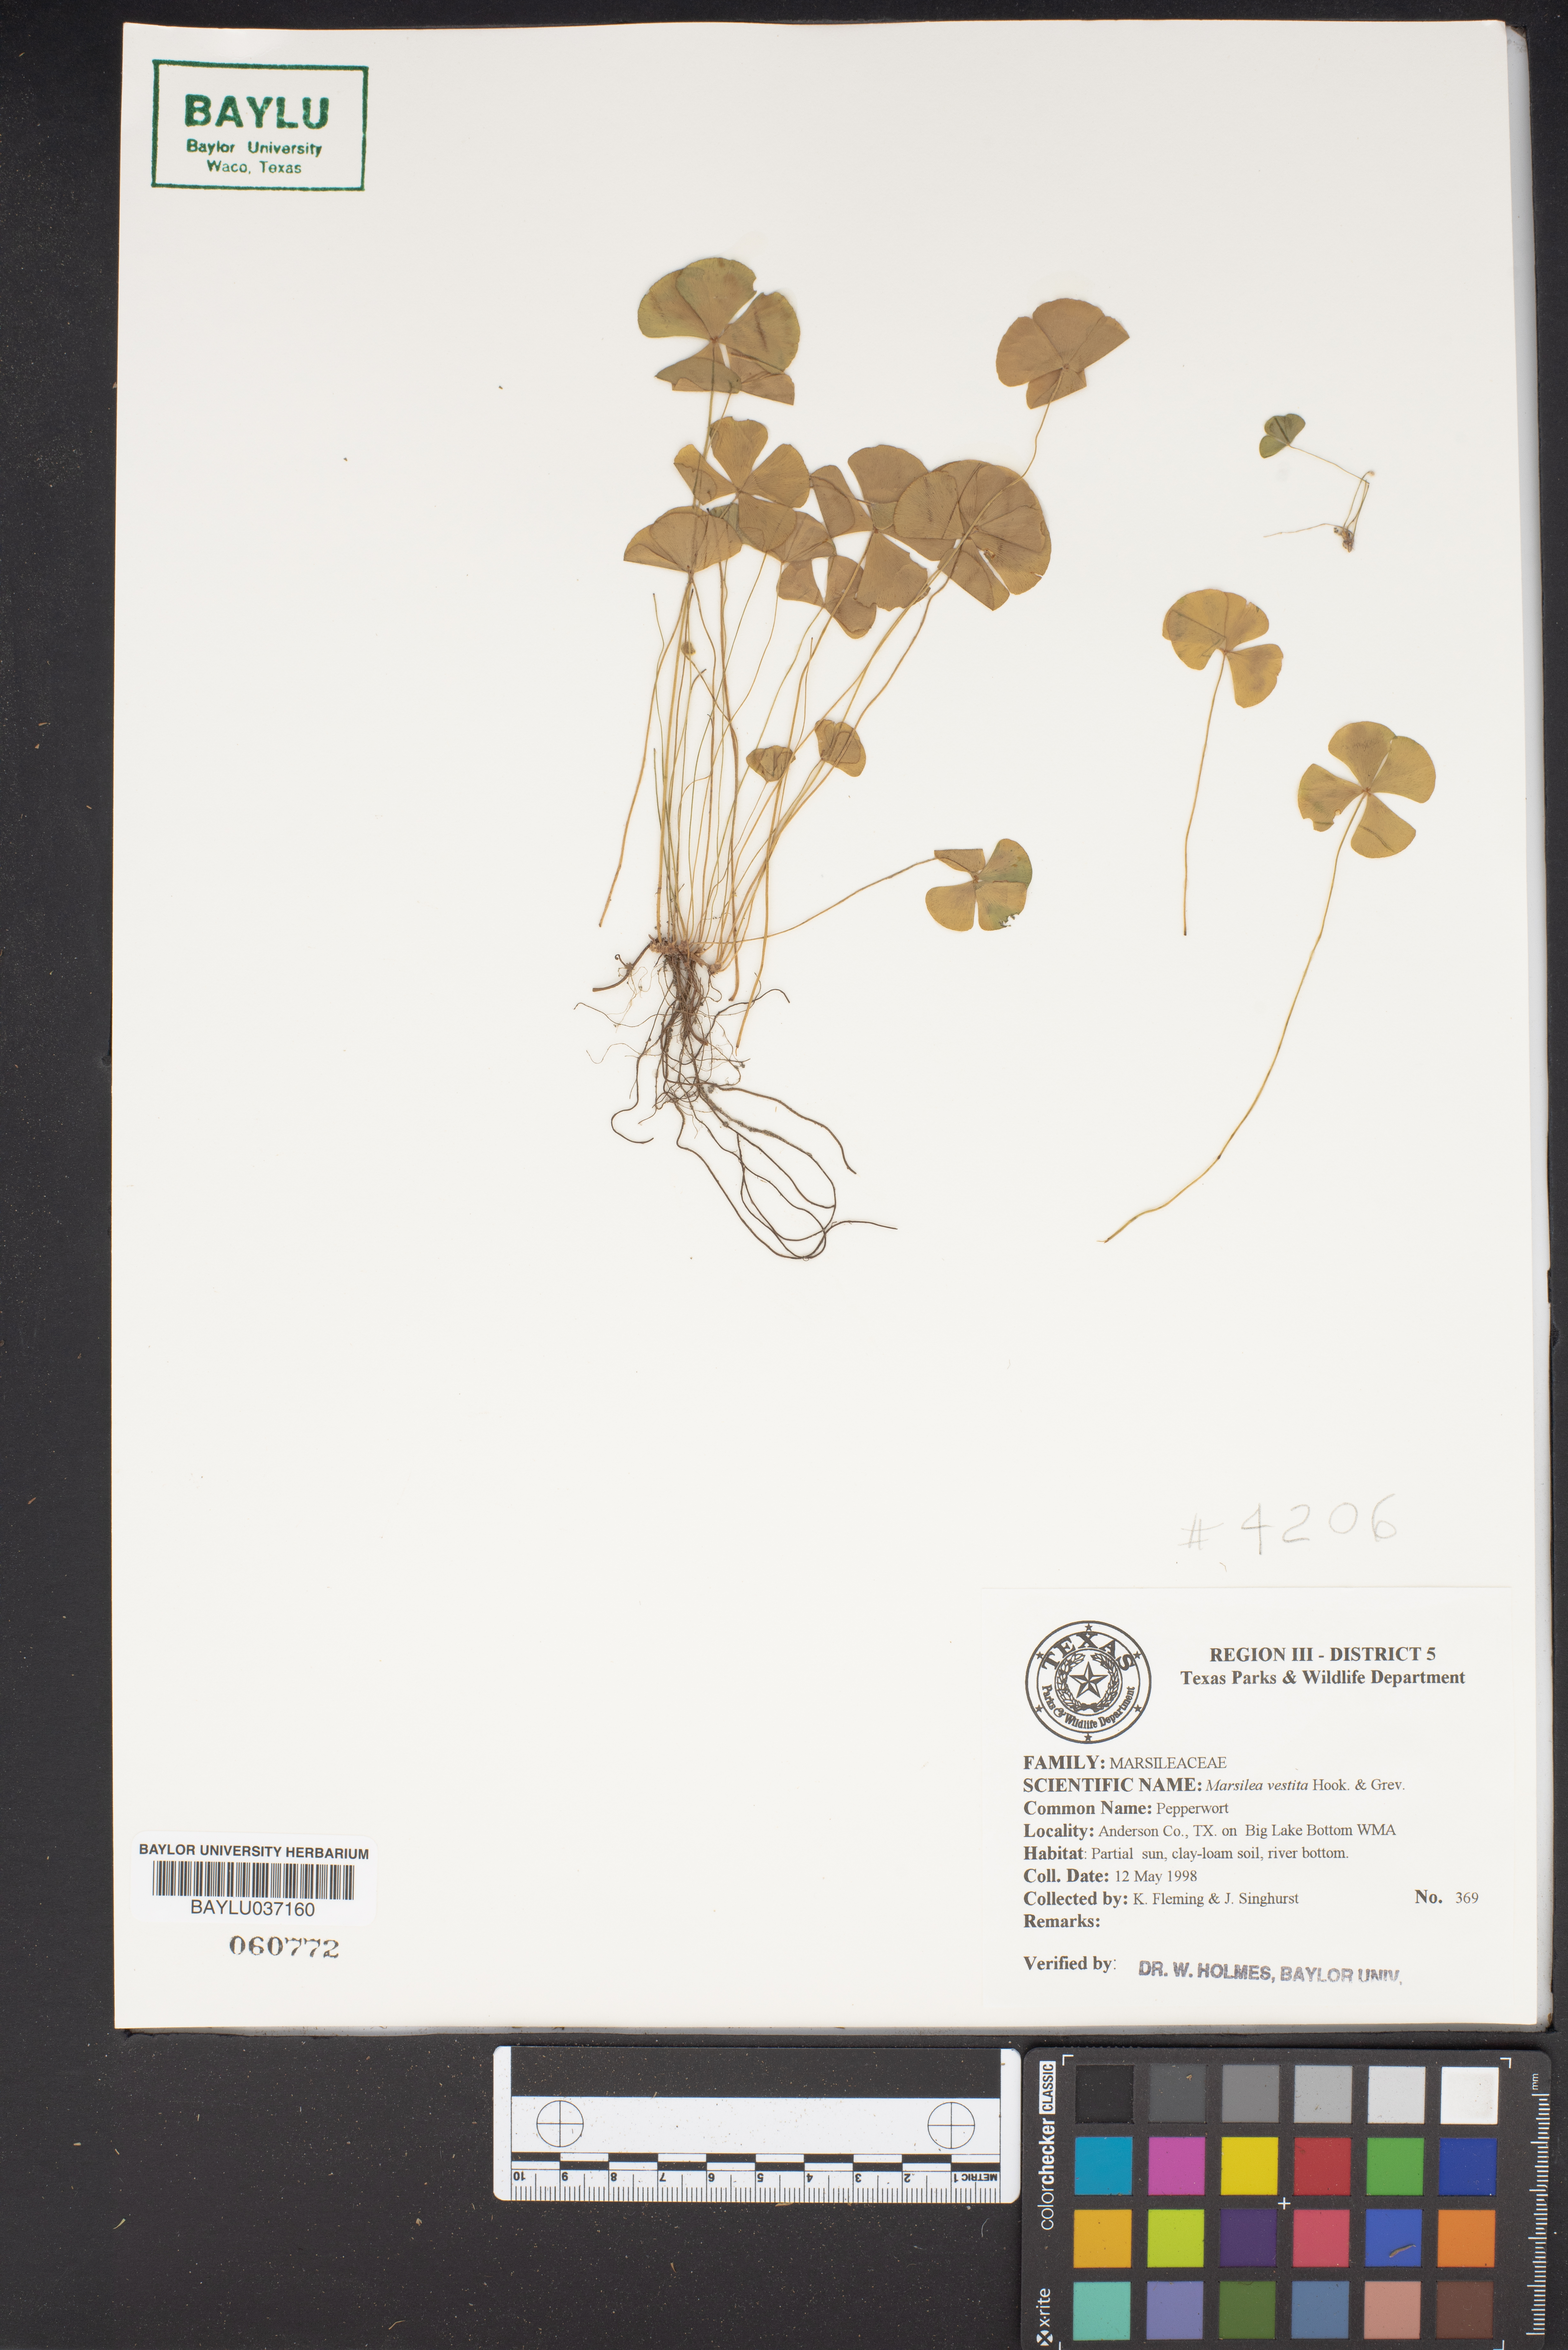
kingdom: Plantae
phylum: Tracheophyta
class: Polypodiopsida
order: Salviniales
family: Marsileaceae
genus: Marsilea
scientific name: Marsilea vestita
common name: Hooked-pepperwort
